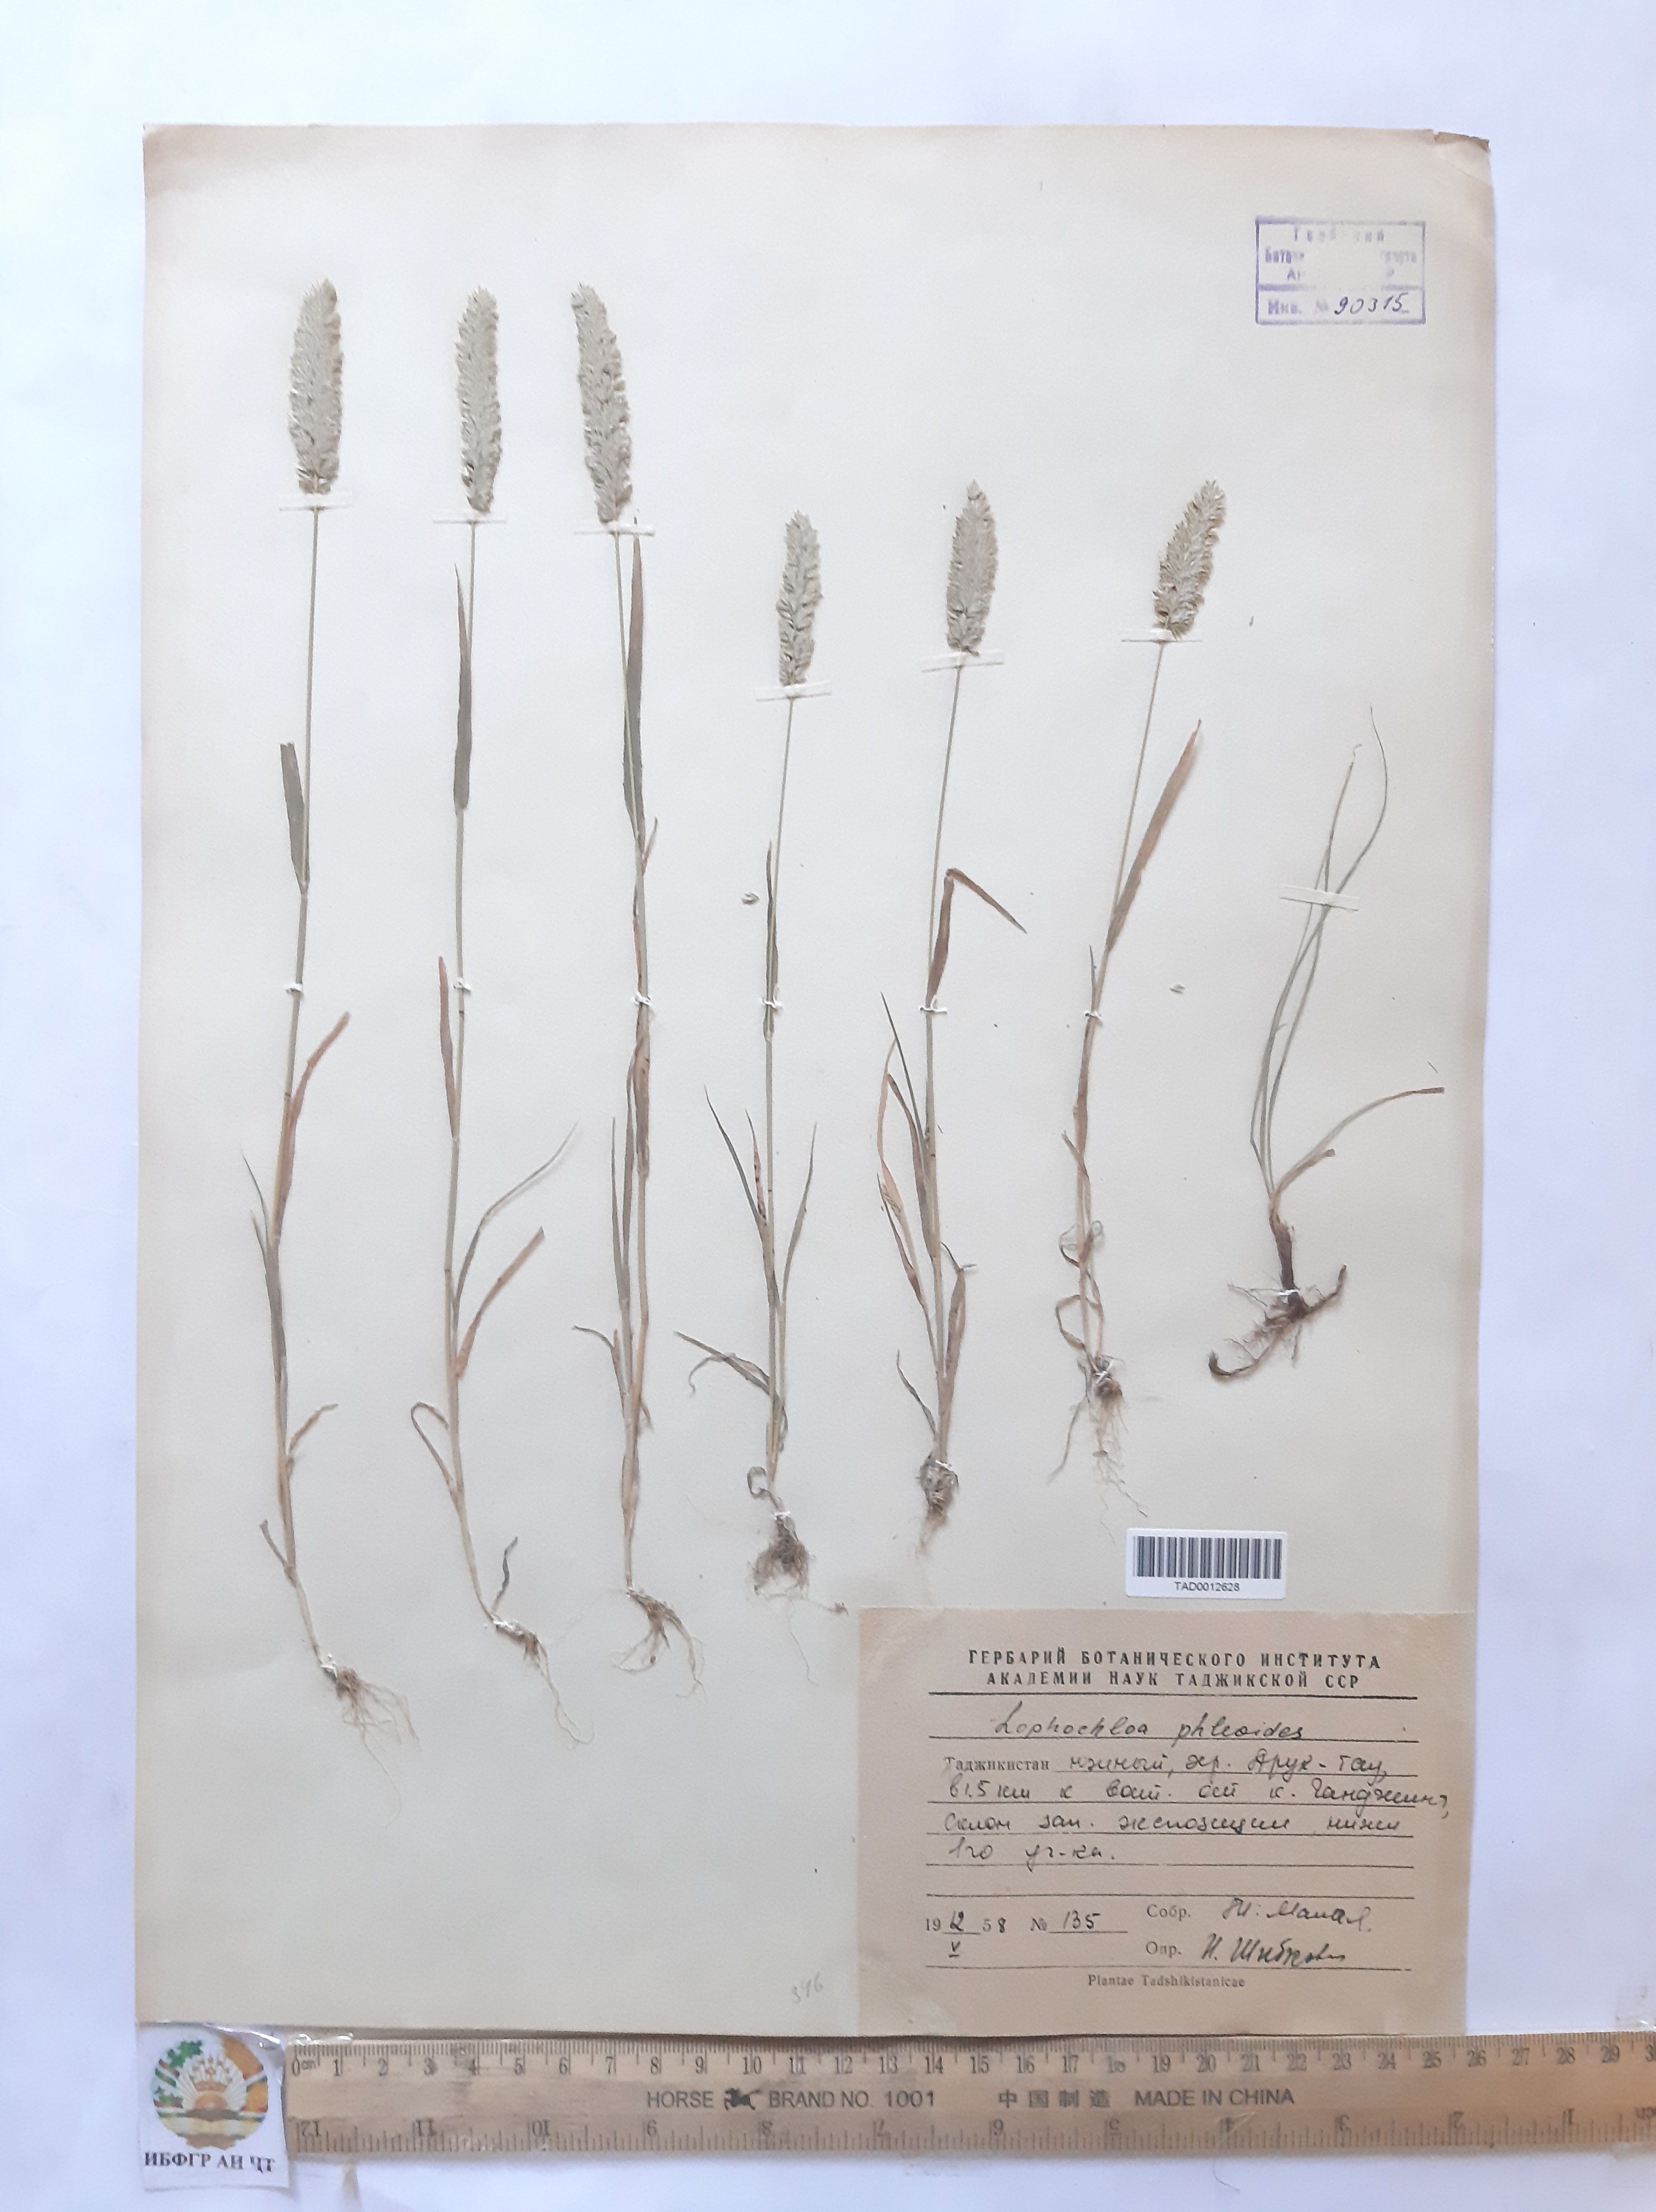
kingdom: Plantae
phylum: Tracheophyta
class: Liliopsida
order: Poales
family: Poaceae
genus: Rostraria
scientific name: Rostraria cristata
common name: Mediterranean hair-grass
